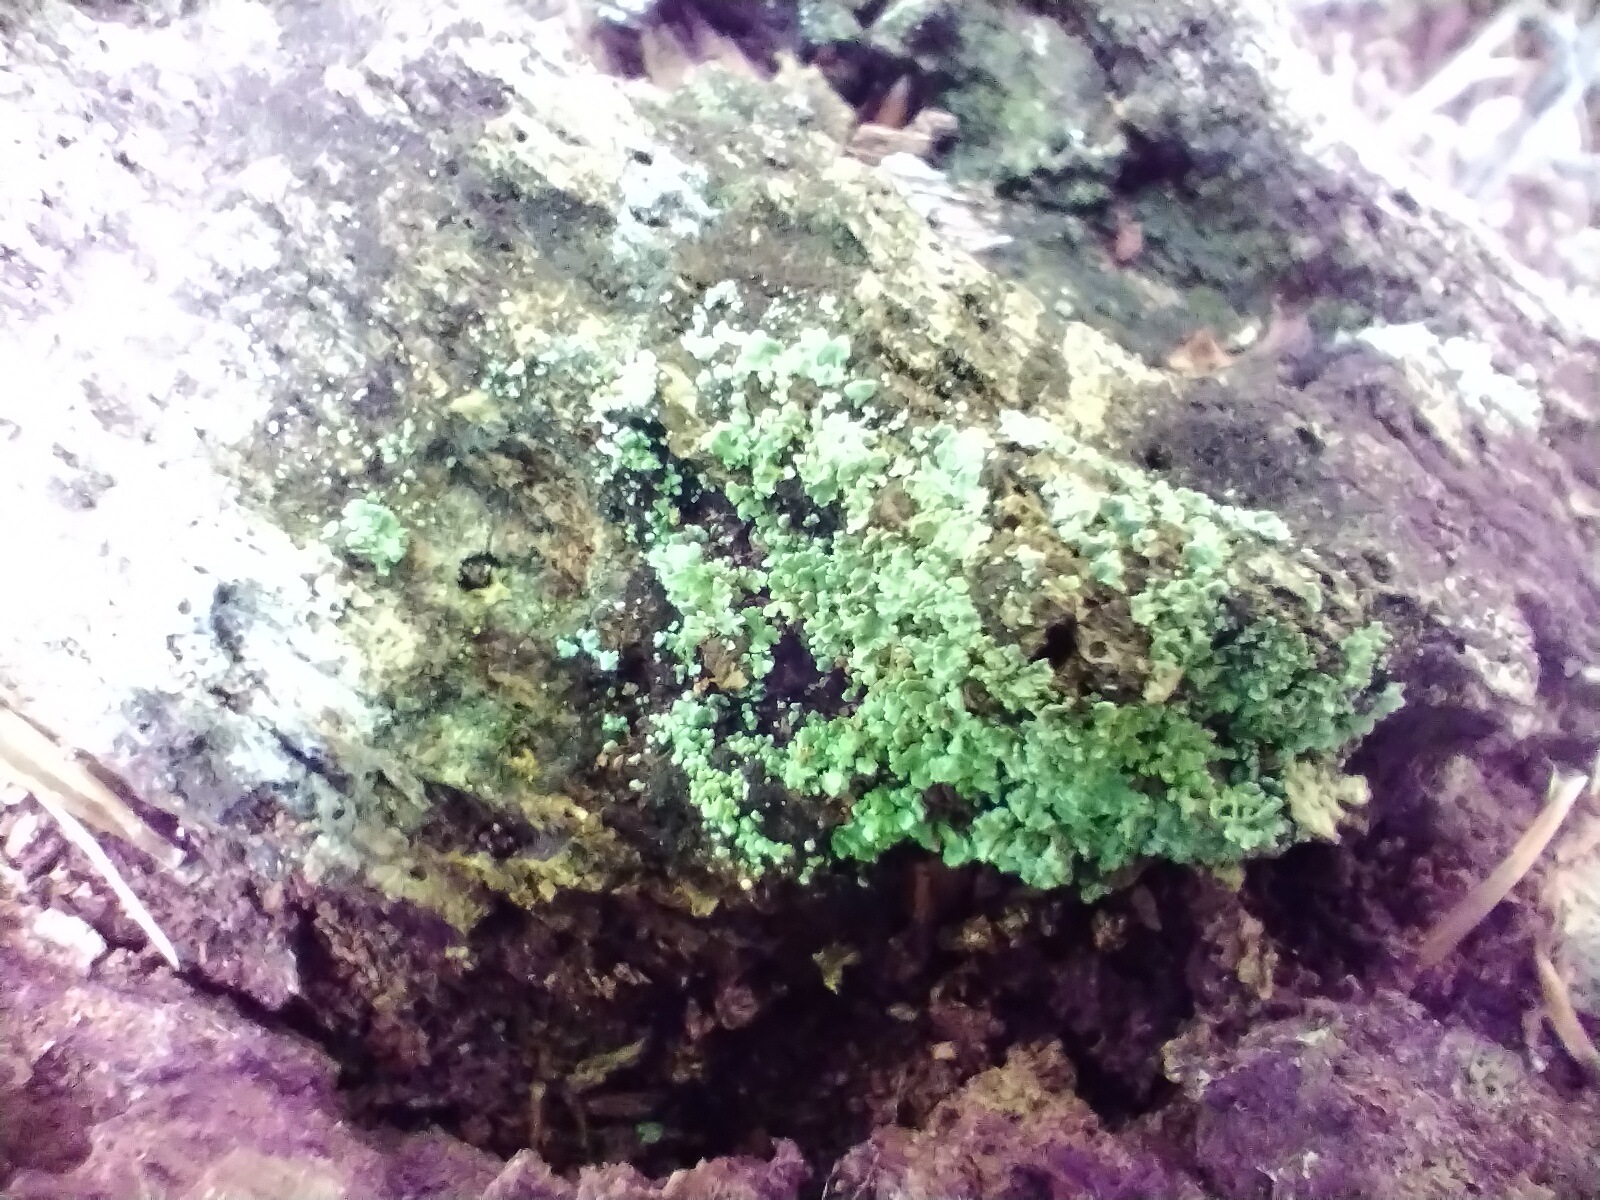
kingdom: Fungi
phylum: Ascomycota
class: Lecanoromycetes
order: Lecanorales
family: Cladoniaceae
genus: Cladonia
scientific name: Cladonia
